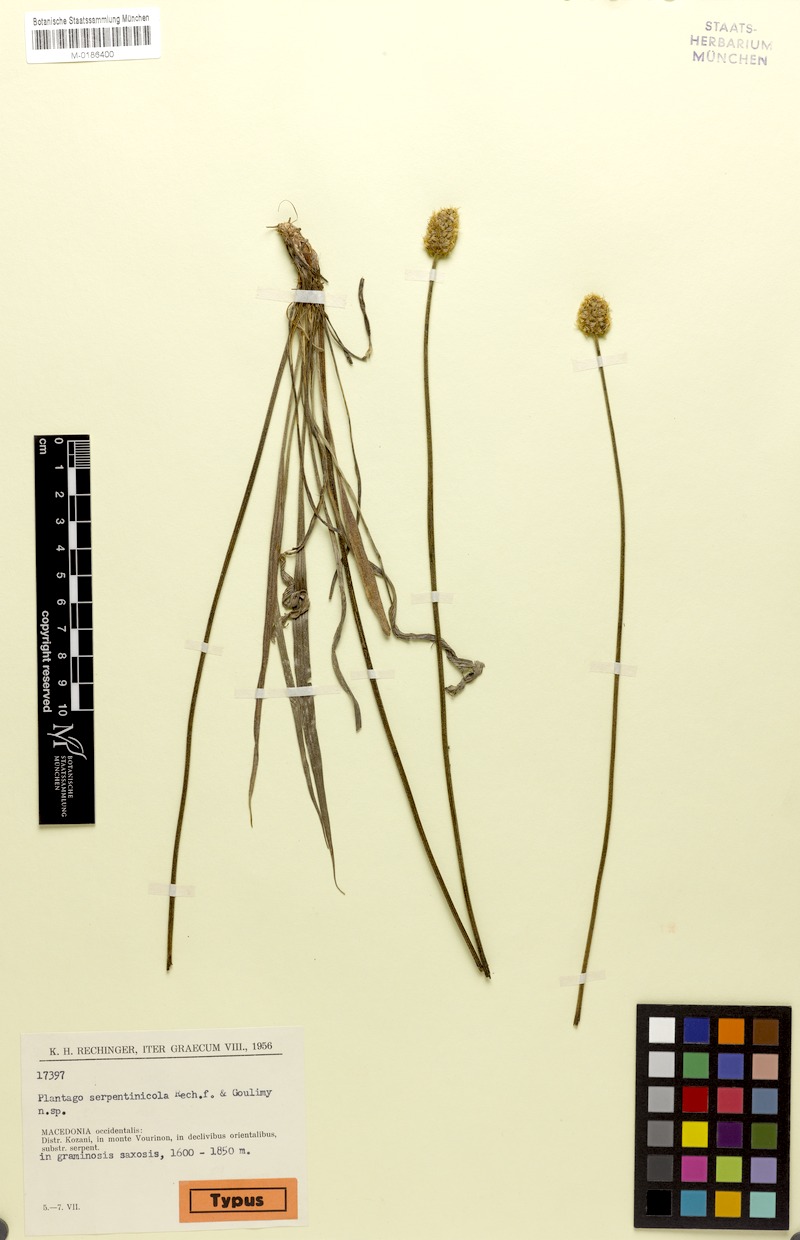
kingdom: Plantae
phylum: Tracheophyta
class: Magnoliopsida
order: Lamiales
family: Plantaginaceae
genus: Plantago
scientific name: Plantago argentea
